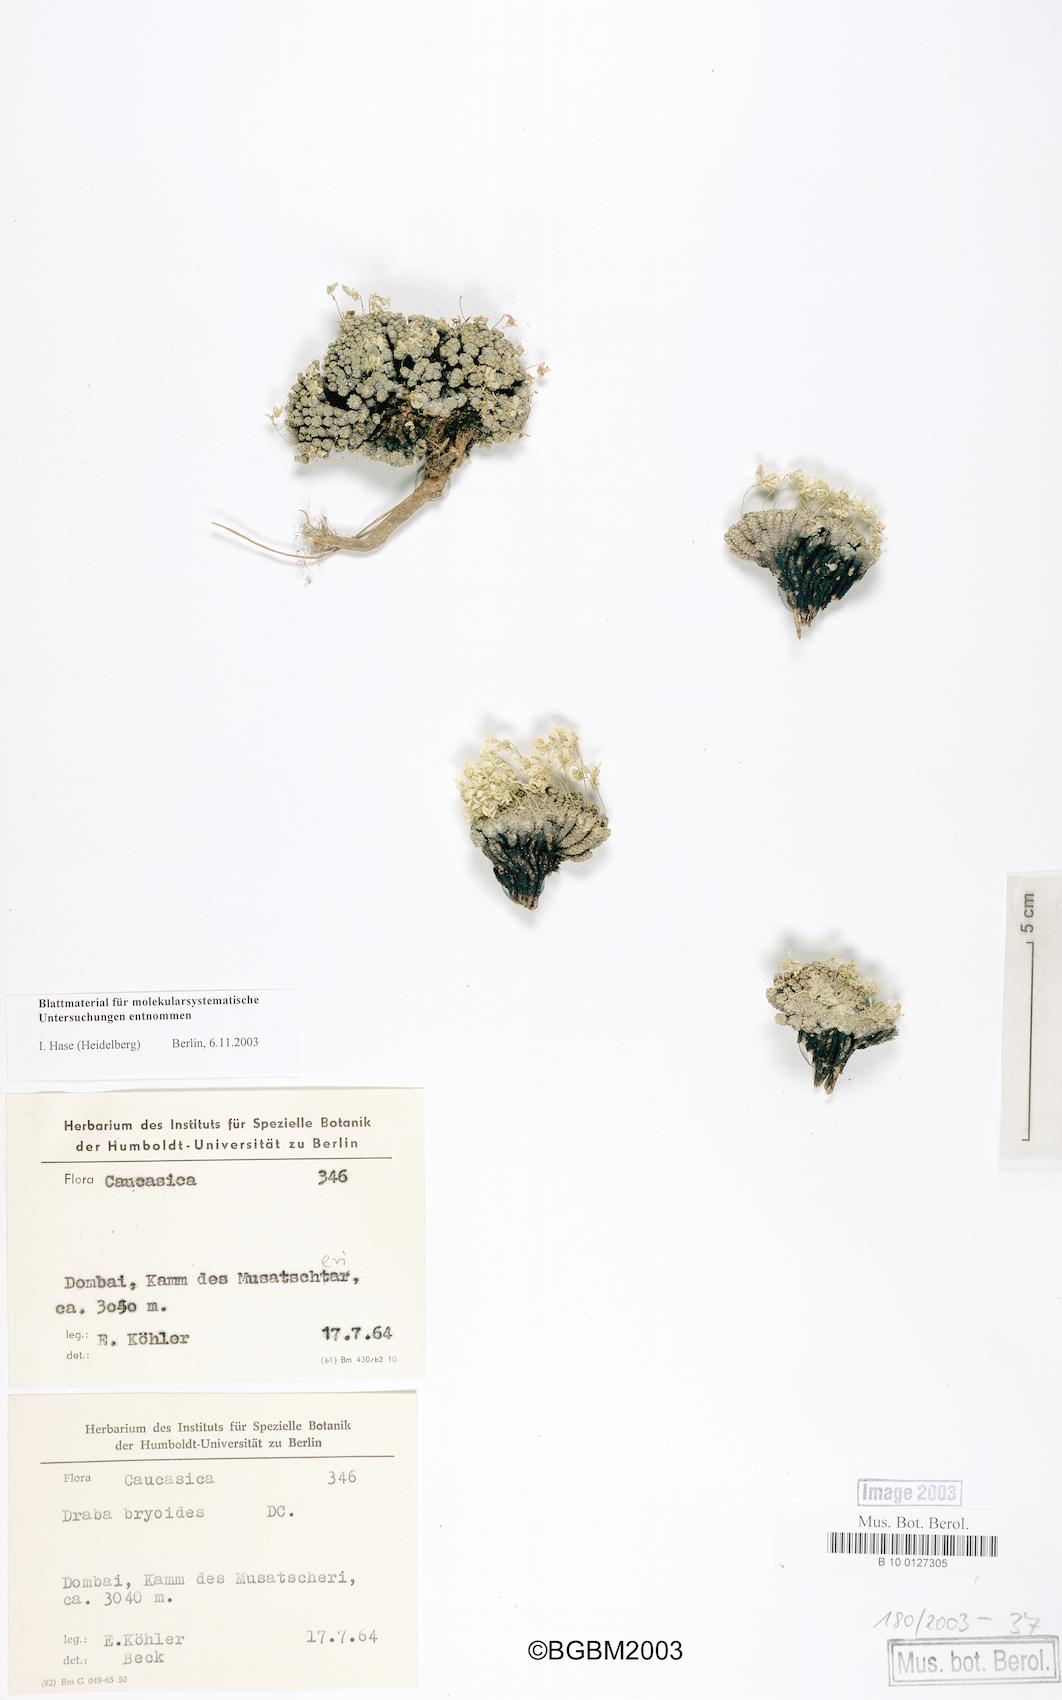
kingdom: Plantae
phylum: Tracheophyta
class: Magnoliopsida
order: Brassicales
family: Brassicaceae
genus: Draba
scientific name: Draba rigida
